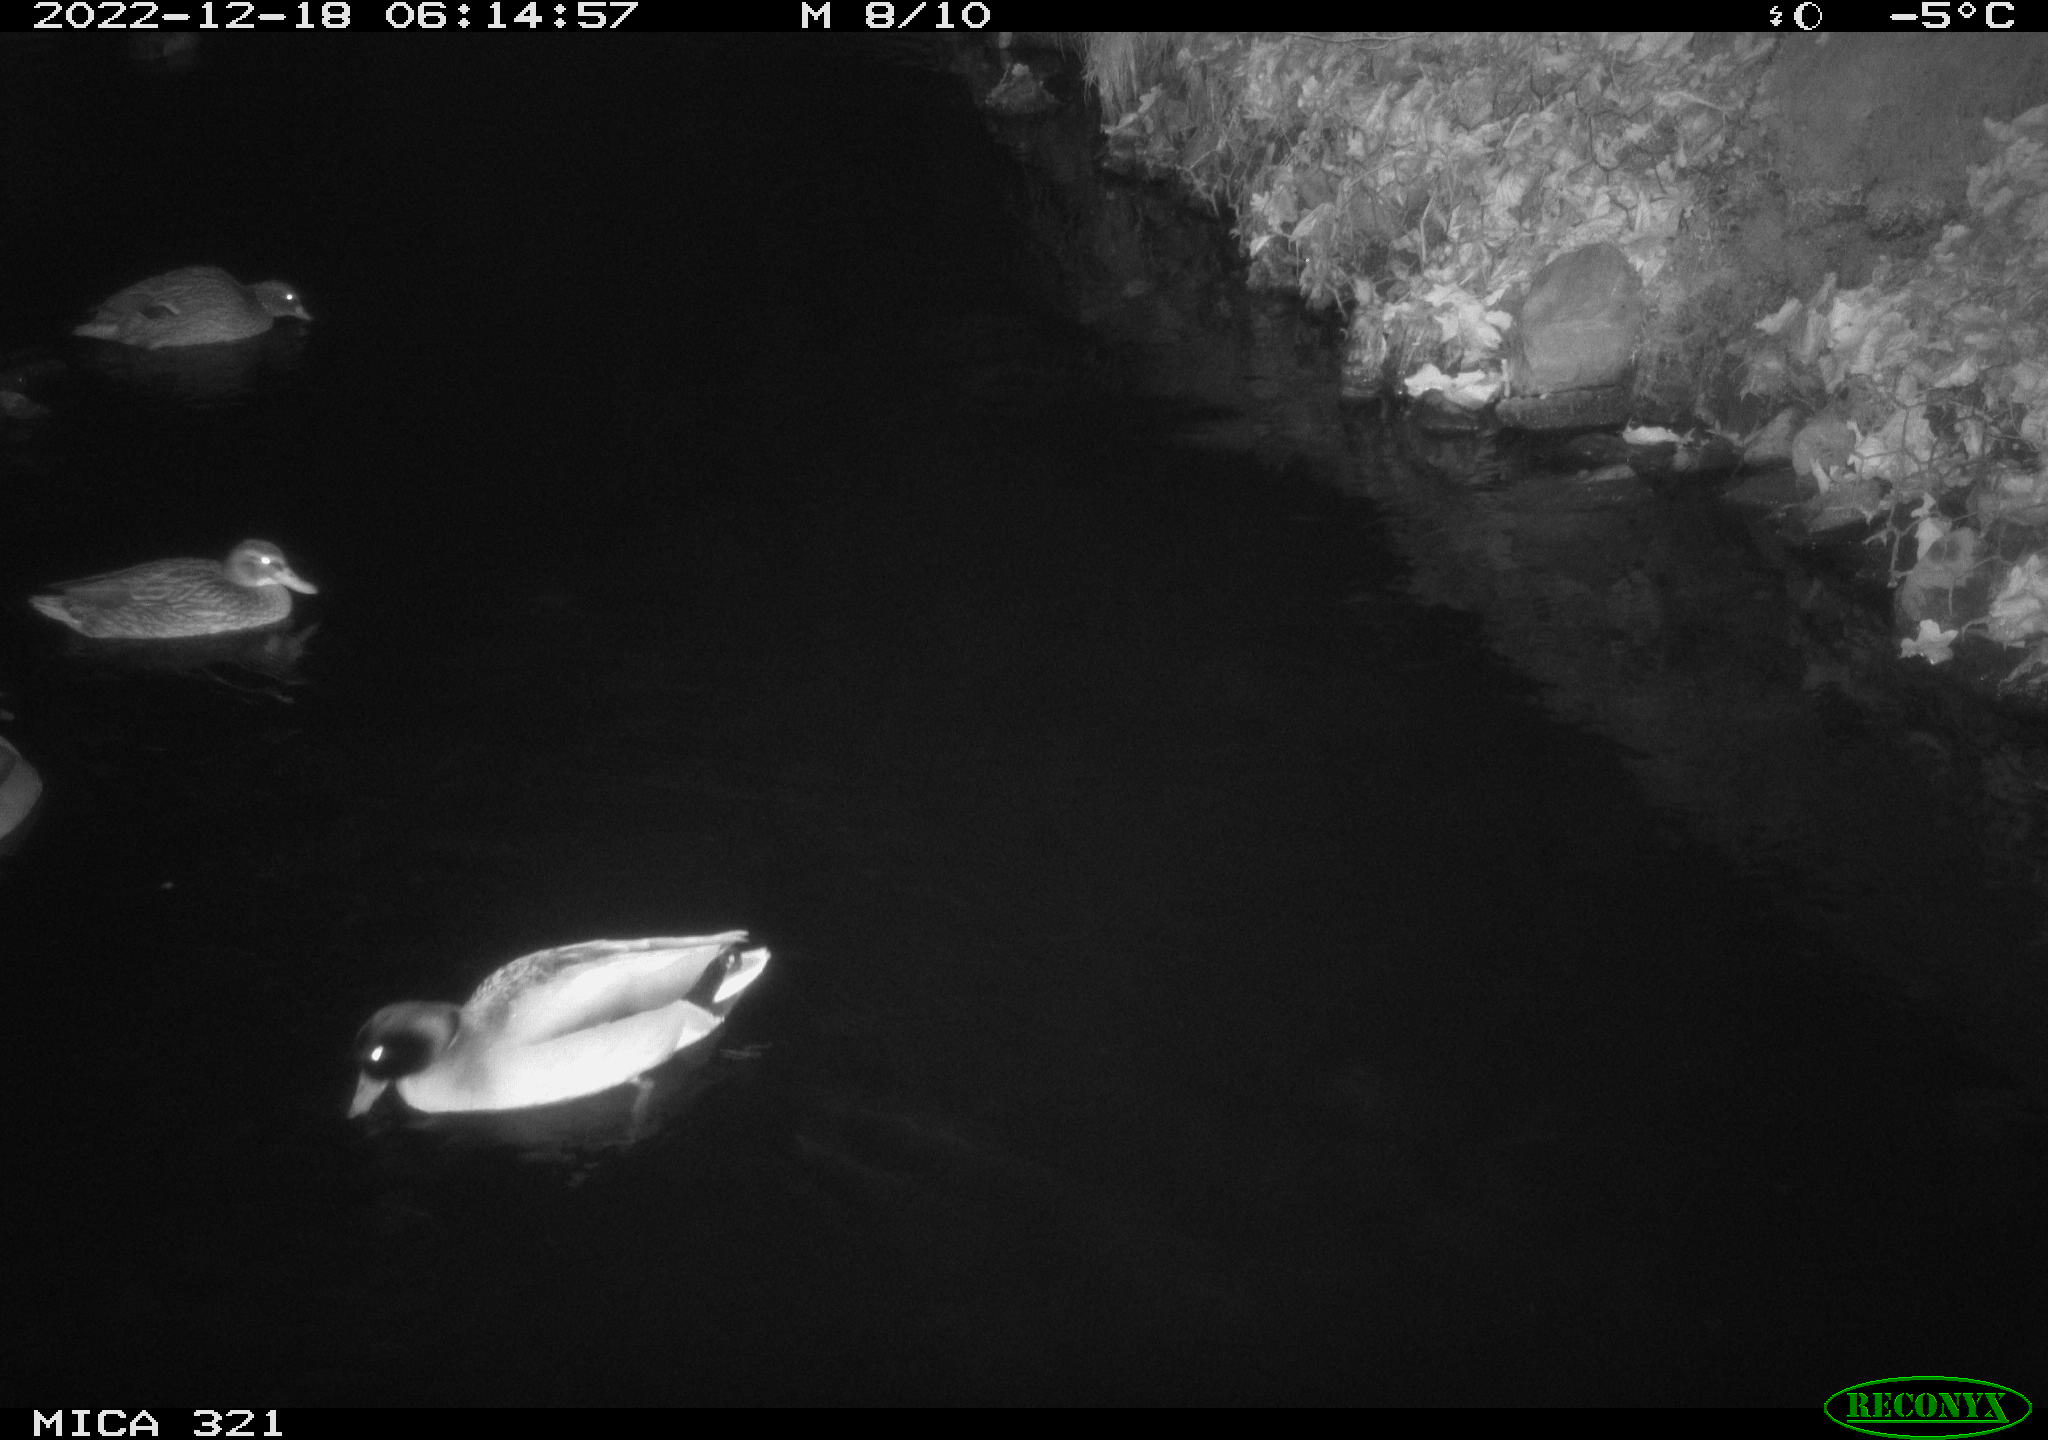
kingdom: Animalia
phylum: Chordata
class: Aves
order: Anseriformes
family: Anatidae
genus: Anas
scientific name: Anas
